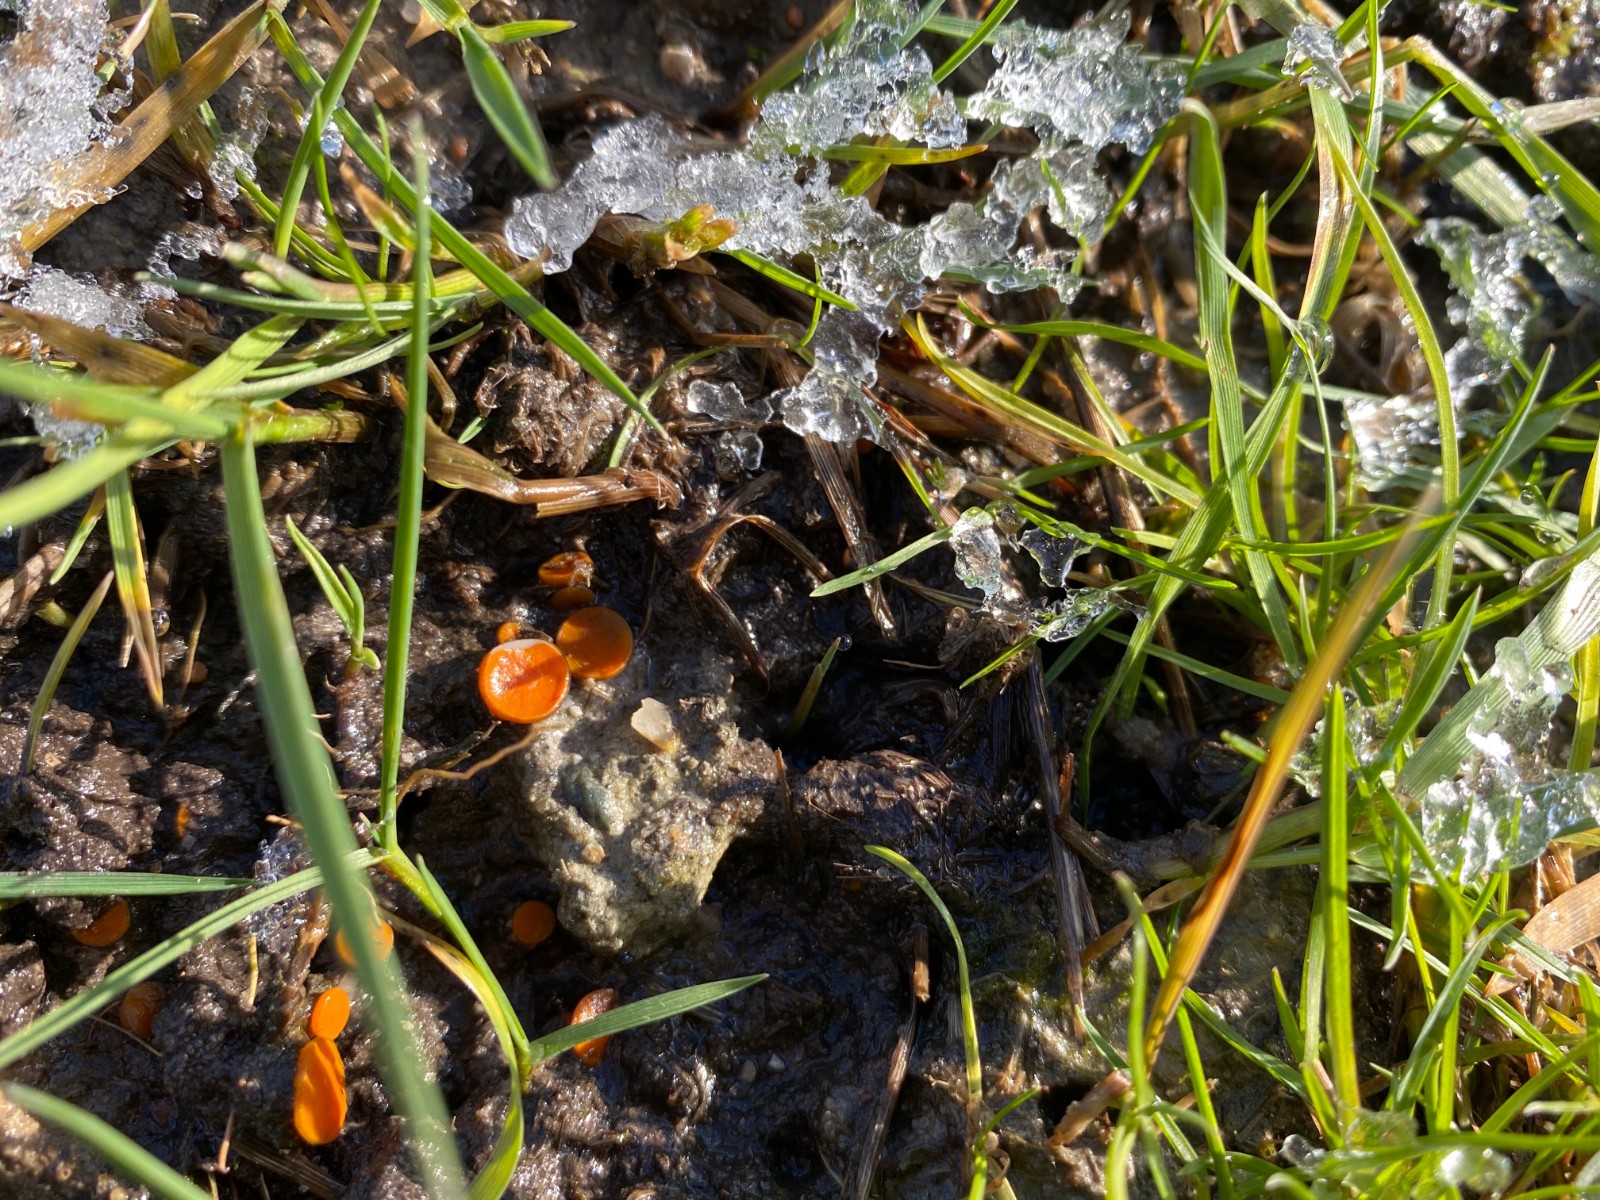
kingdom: Fungi
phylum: Ascomycota
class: Pezizomycetes
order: Pezizales
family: Pyronemataceae
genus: Melastiza
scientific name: Melastiza cornubiensis
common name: mørkrandet rødbæger
